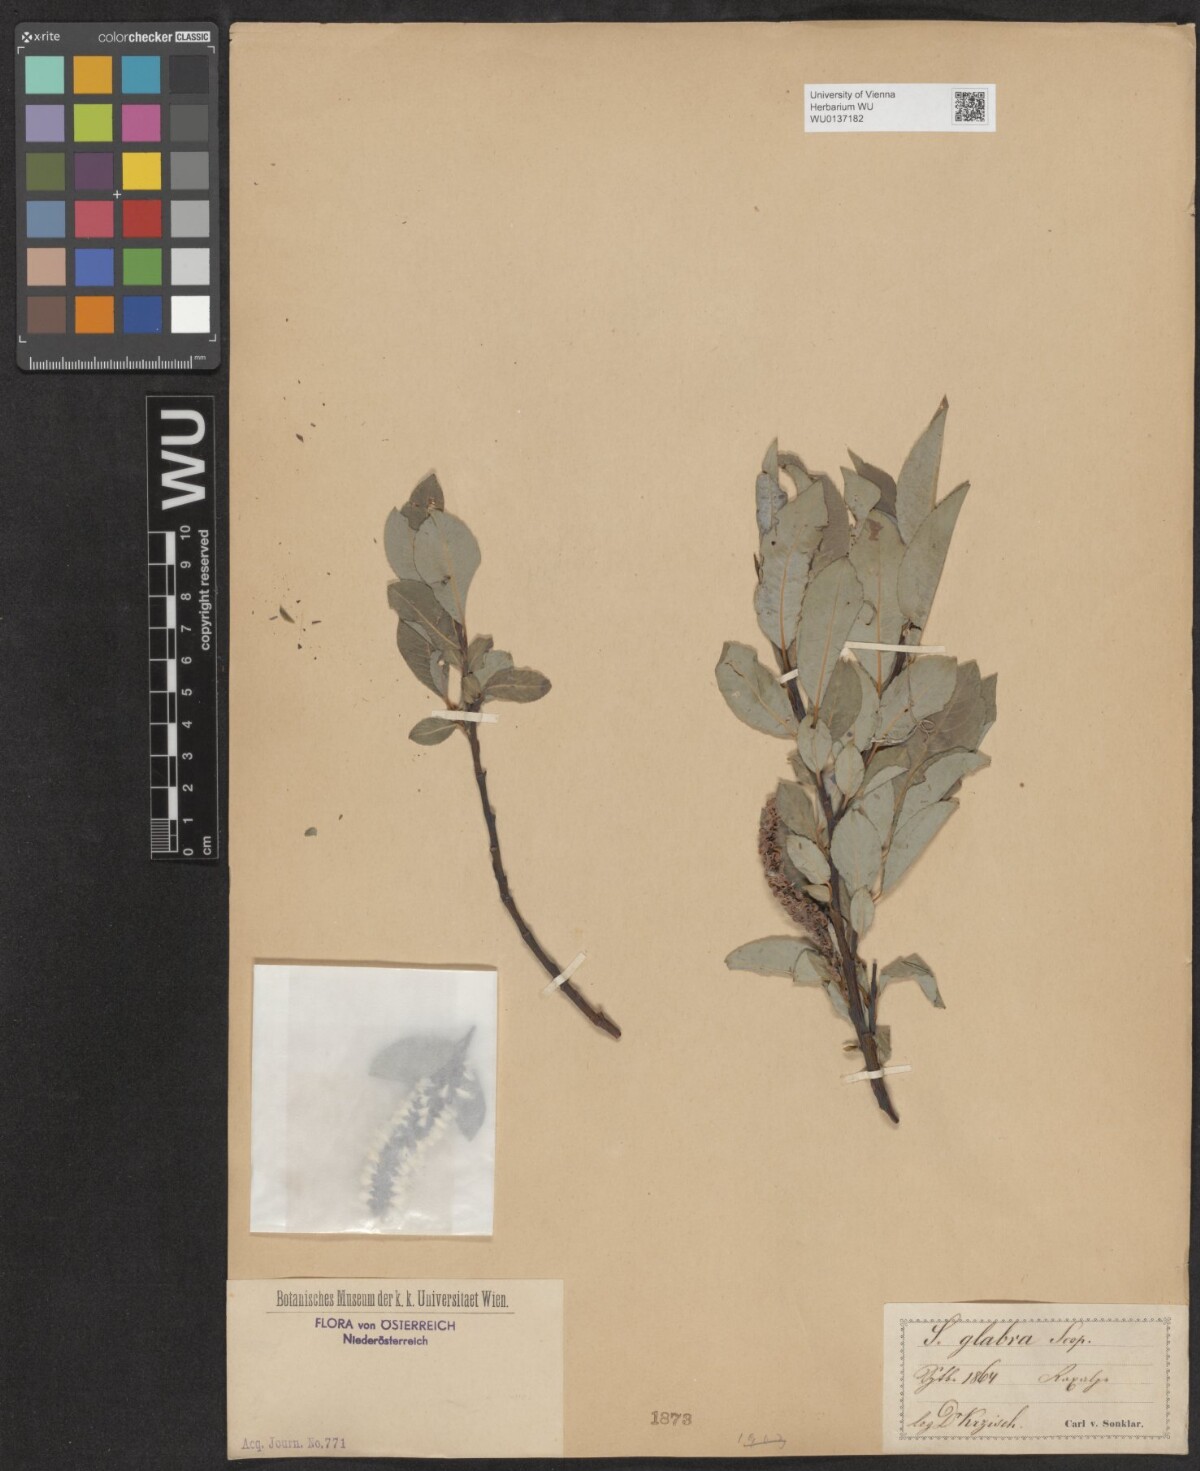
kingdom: Plantae
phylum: Tracheophyta
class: Magnoliopsida
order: Malpighiales
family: Salicaceae
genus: Salix
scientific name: Salix glabra
